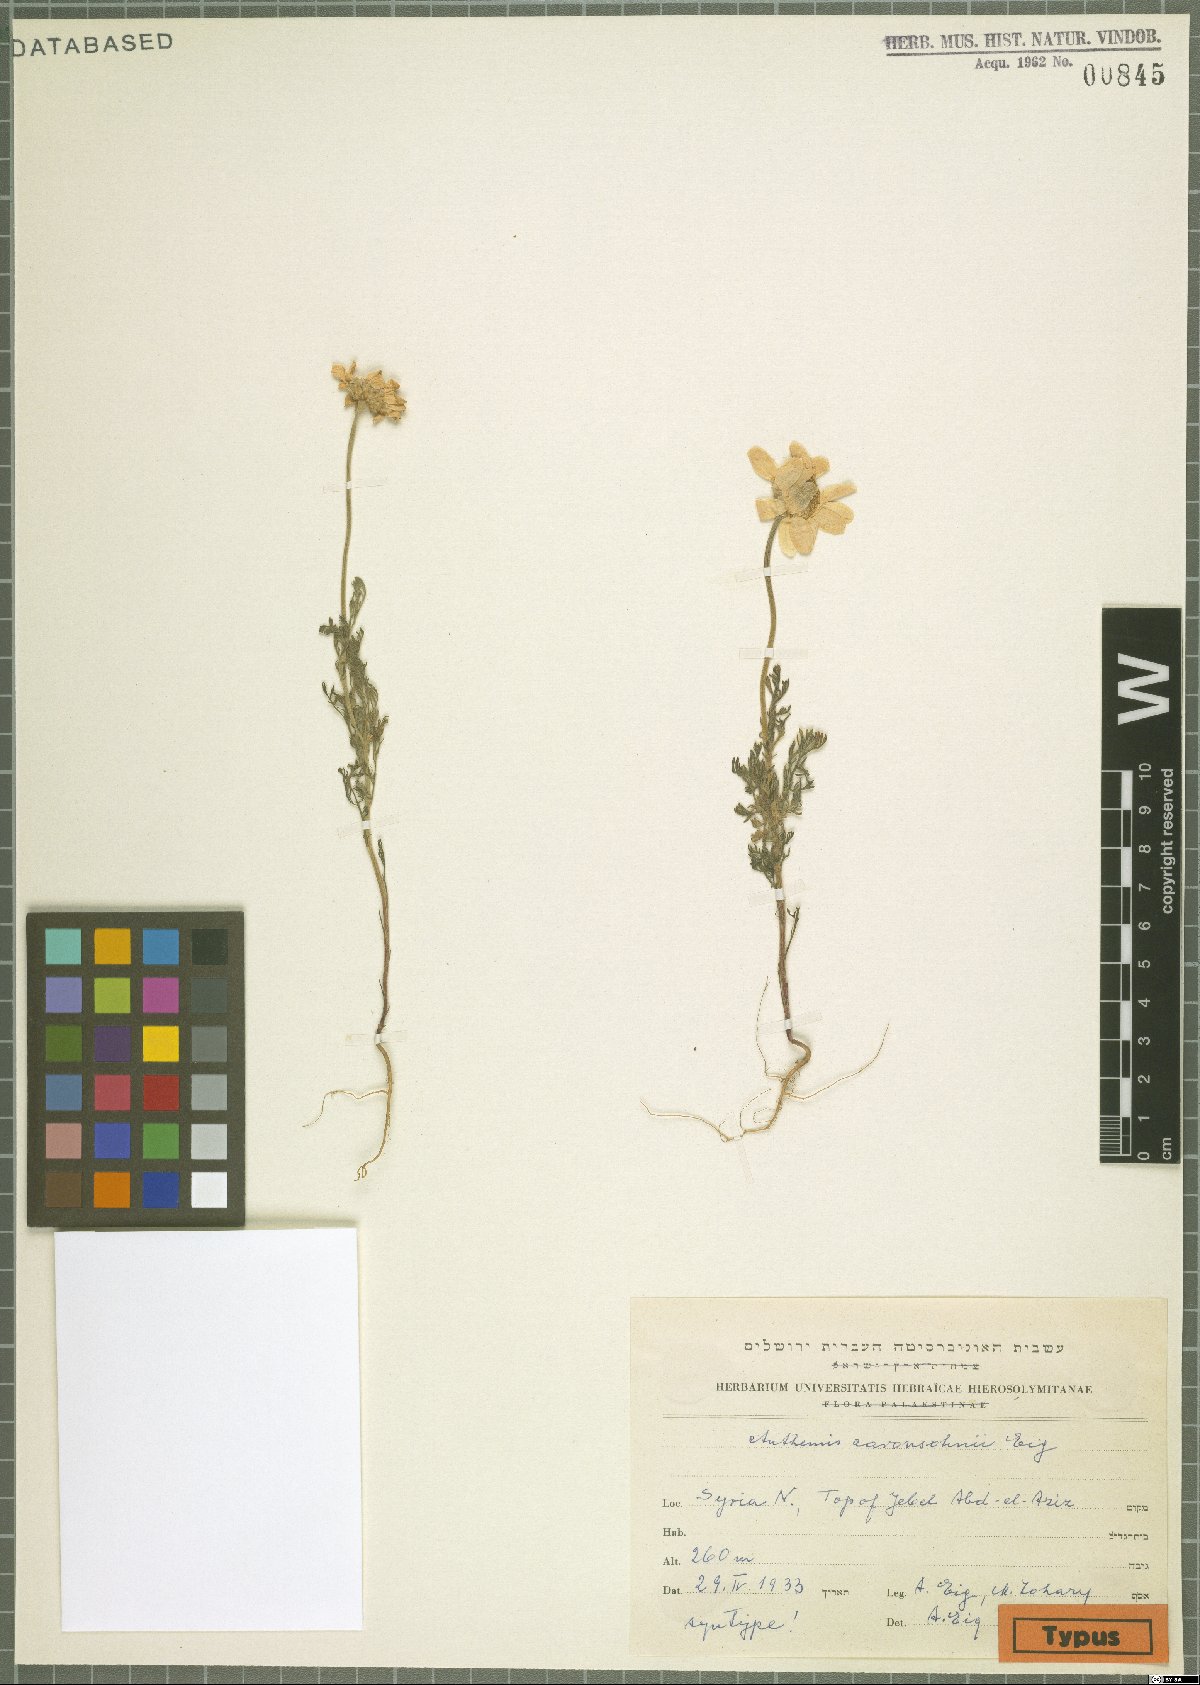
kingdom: Plantae
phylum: Tracheophyta
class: Magnoliopsida
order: Asterales
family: Asteraceae
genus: Anthemis
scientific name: Anthemis aaronsohnii
